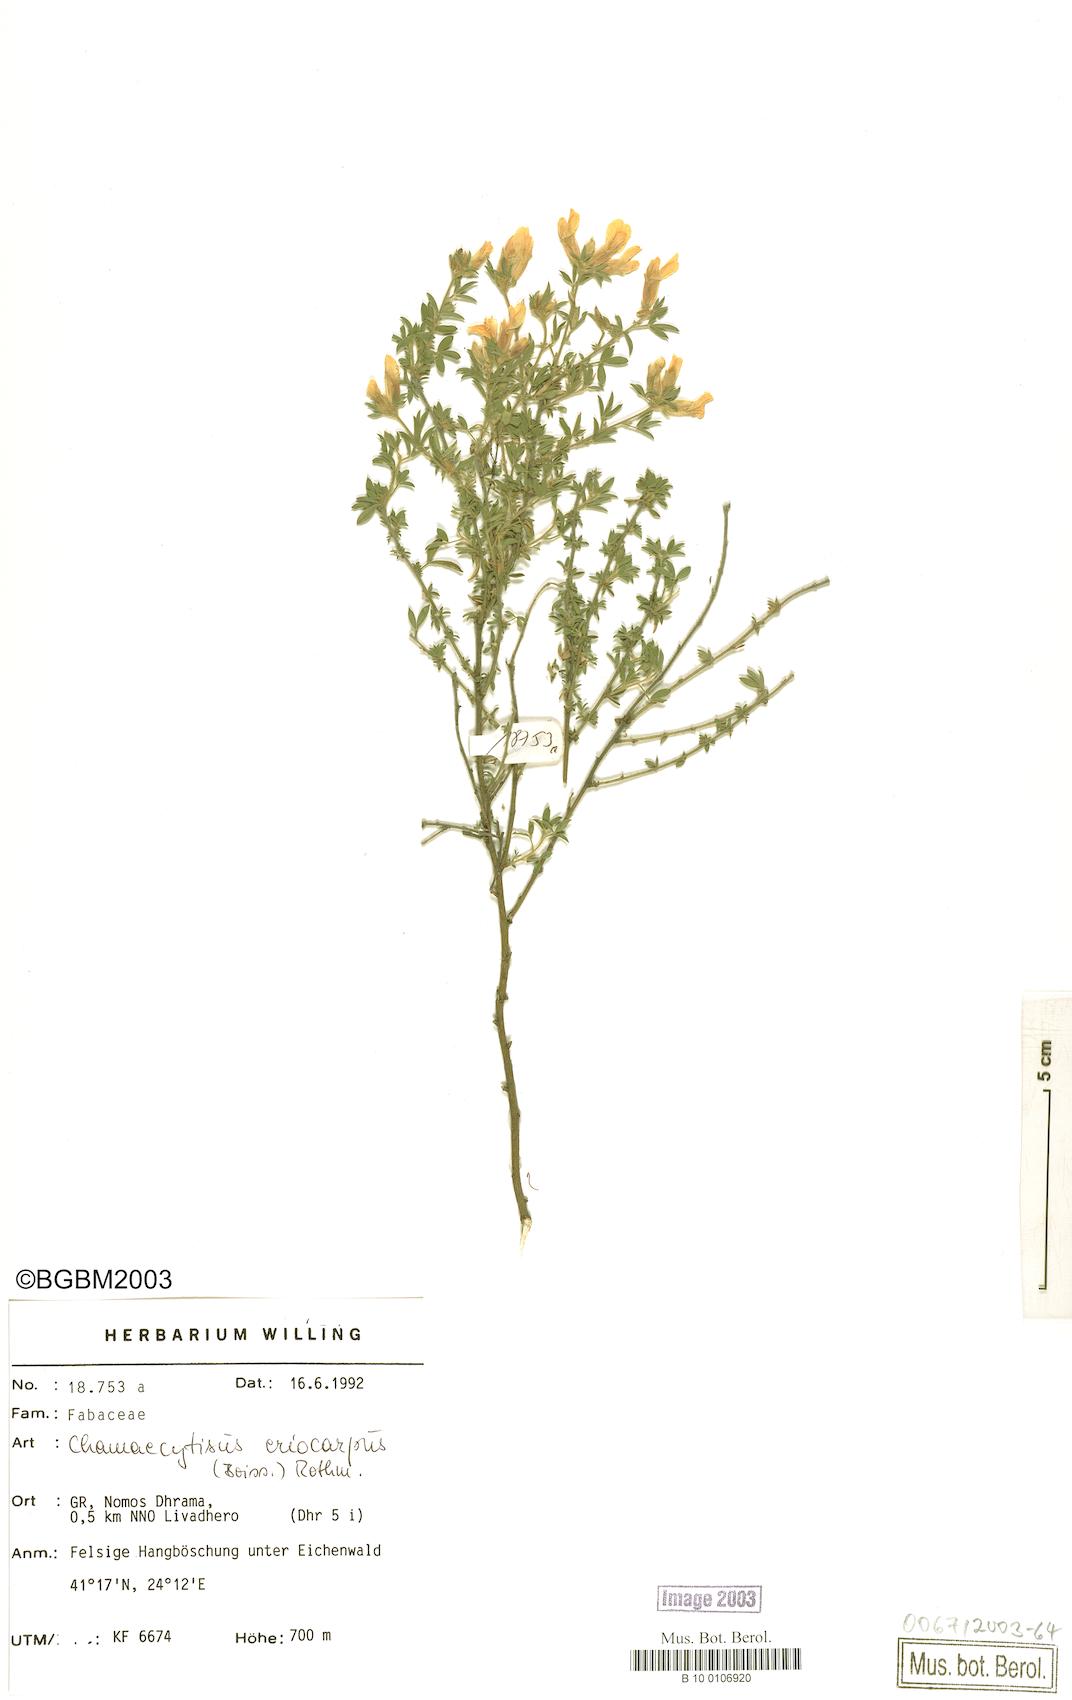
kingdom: Plantae
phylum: Tracheophyta
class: Magnoliopsida
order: Fabales
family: Fabaceae
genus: Chamaecytisus
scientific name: Chamaecytisus eriocarpus
